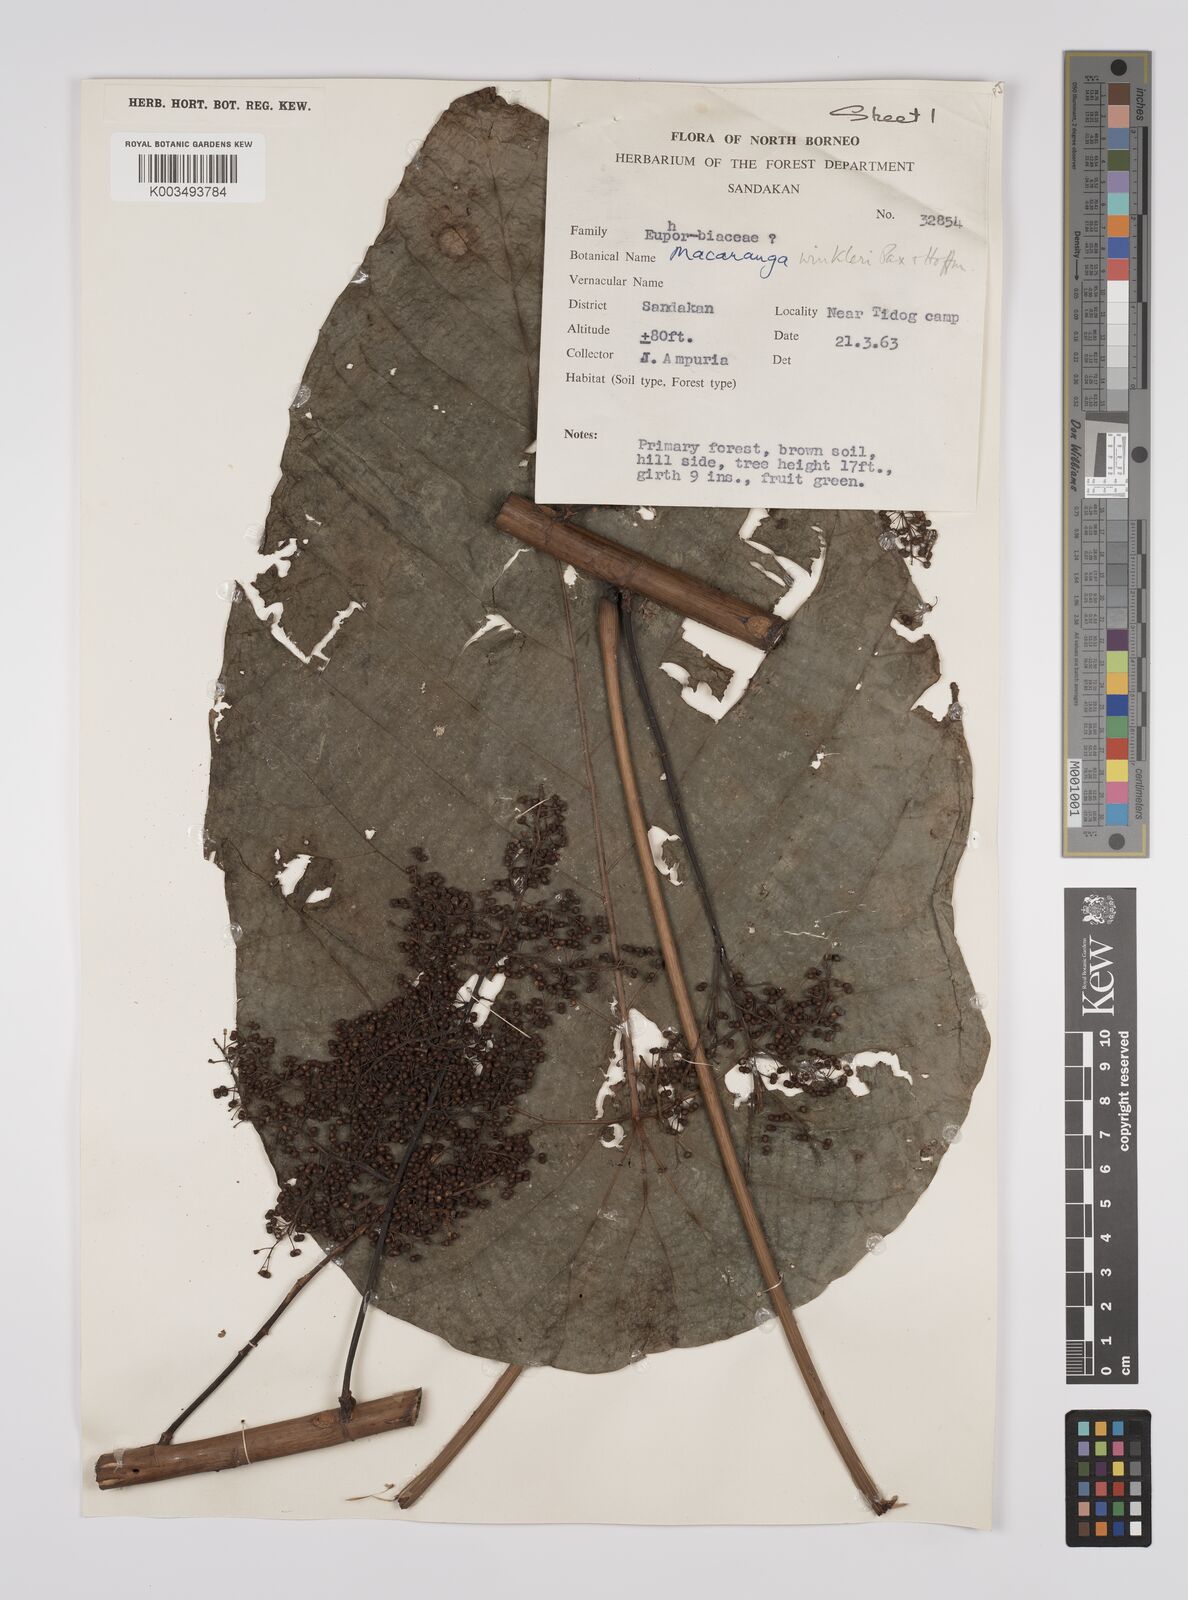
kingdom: Plantae
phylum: Tracheophyta
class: Magnoliopsida
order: Malpighiales
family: Euphorbiaceae
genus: Macaranga
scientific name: Macaranga winkleri
